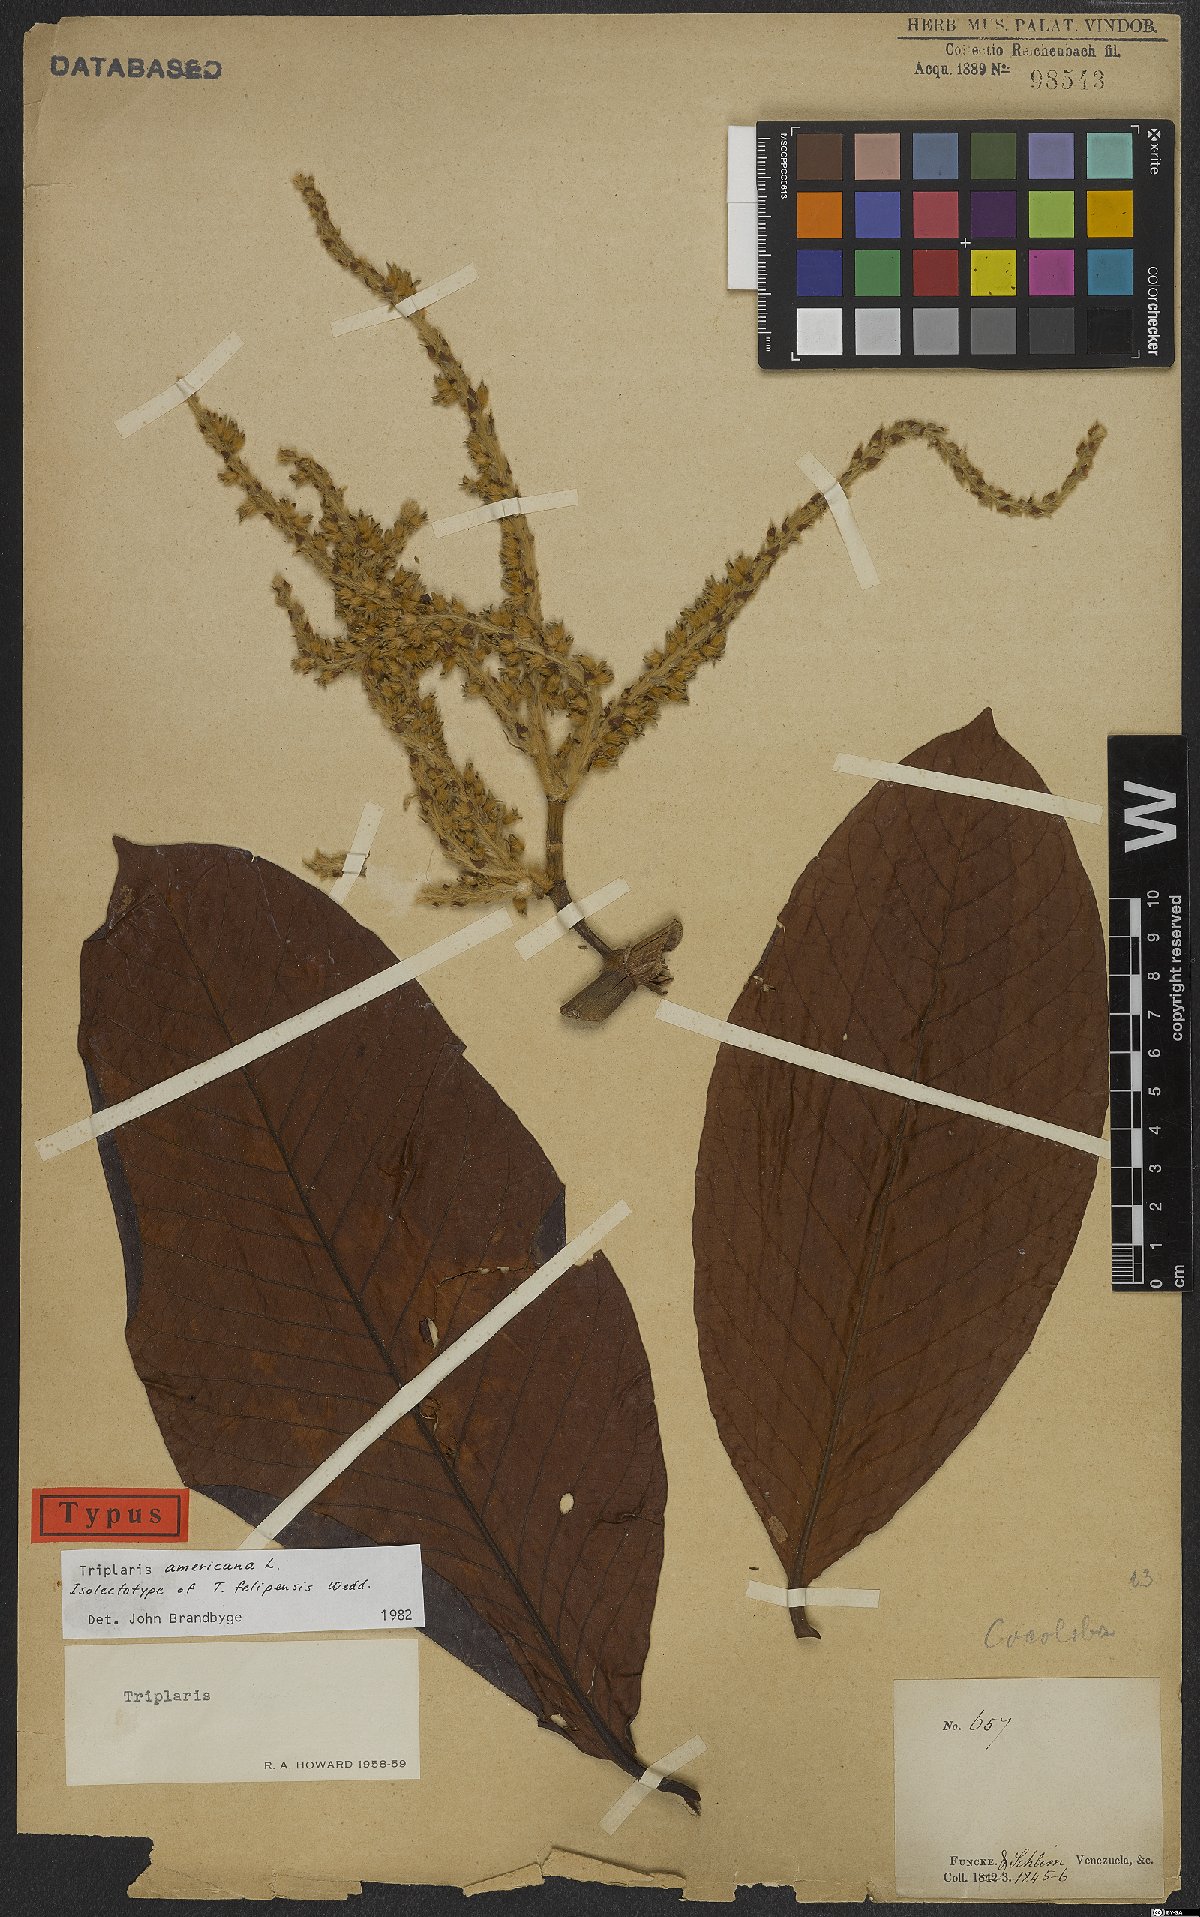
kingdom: Plantae
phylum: Tracheophyta
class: Magnoliopsida
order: Caryophyllales
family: Polygonaceae
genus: Triplaris
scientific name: Triplaris americana
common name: Ant-tree
